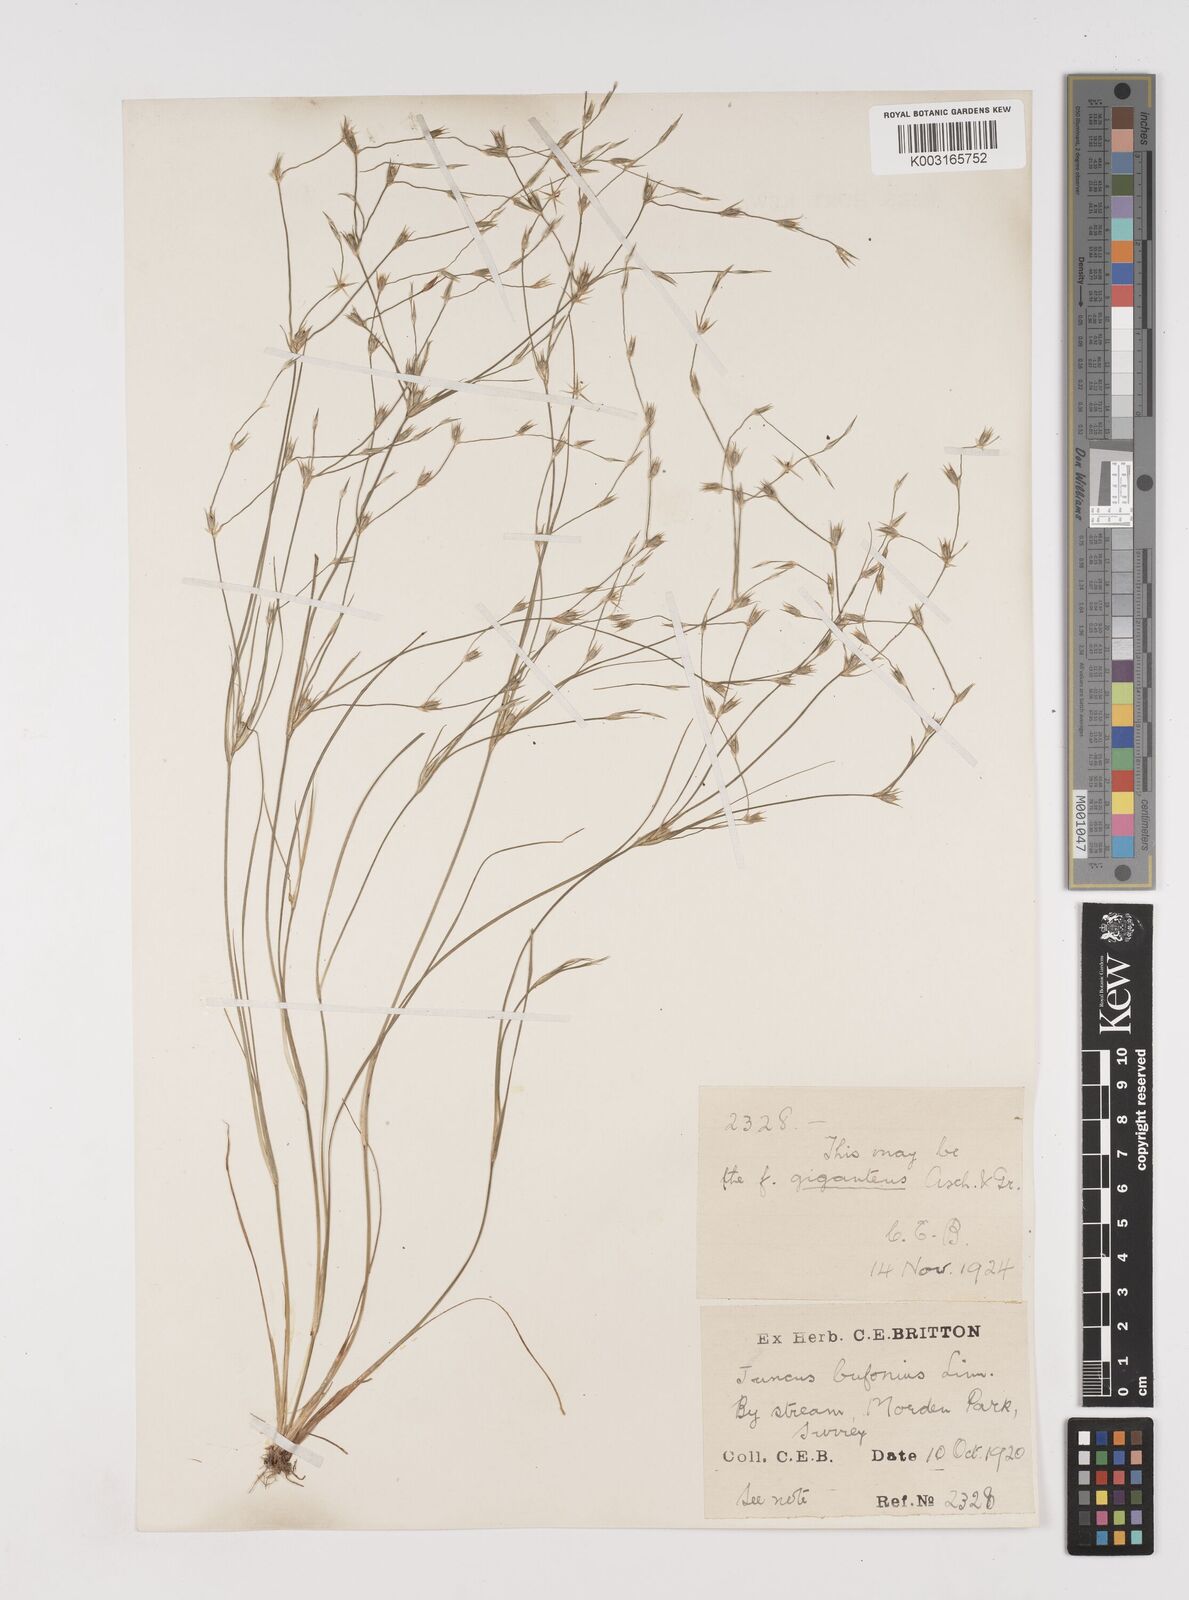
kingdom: Plantae
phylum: Tracheophyta
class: Liliopsida
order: Poales
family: Juncaceae
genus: Juncus
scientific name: Juncus bufonius
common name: Toad rush
